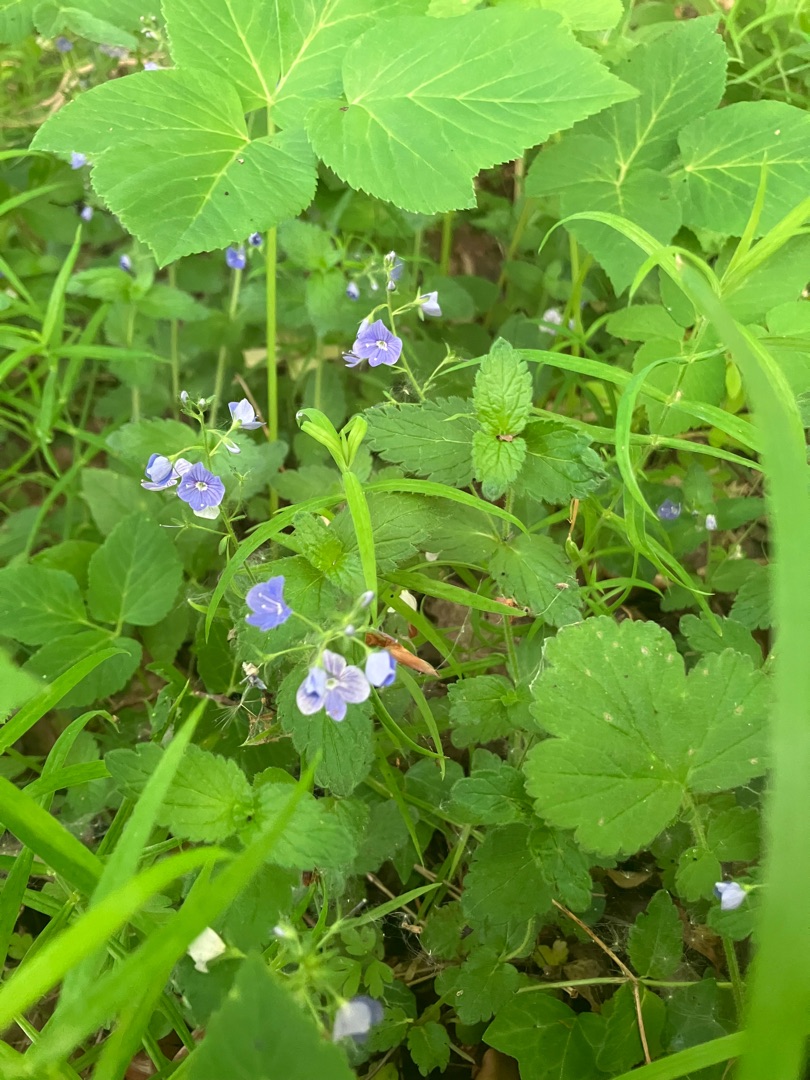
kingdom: Plantae
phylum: Tracheophyta
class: Magnoliopsida
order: Lamiales
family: Plantaginaceae
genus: Veronica
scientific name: Veronica chamaedrys
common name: Tveskægget ærenpris
